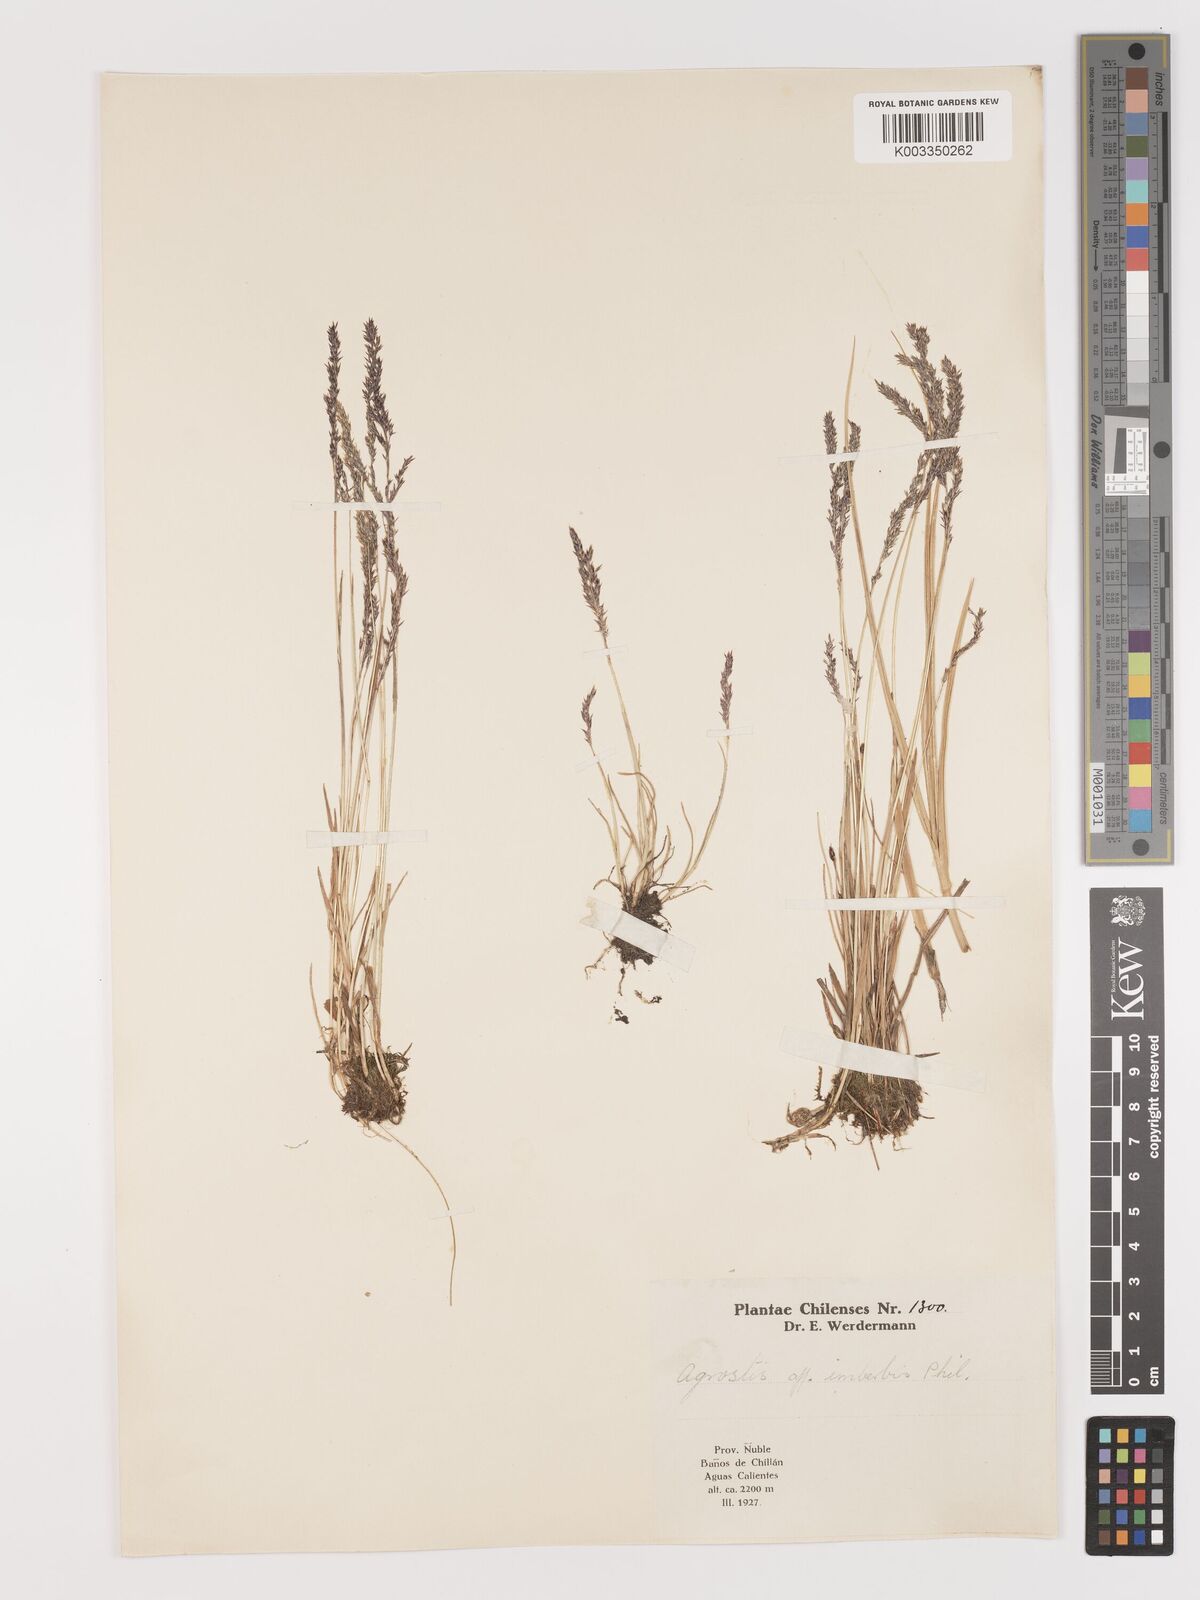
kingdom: Plantae
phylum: Tracheophyta
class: Liliopsida
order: Poales
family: Poaceae
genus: Agrostis
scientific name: Agrostis imberbis
